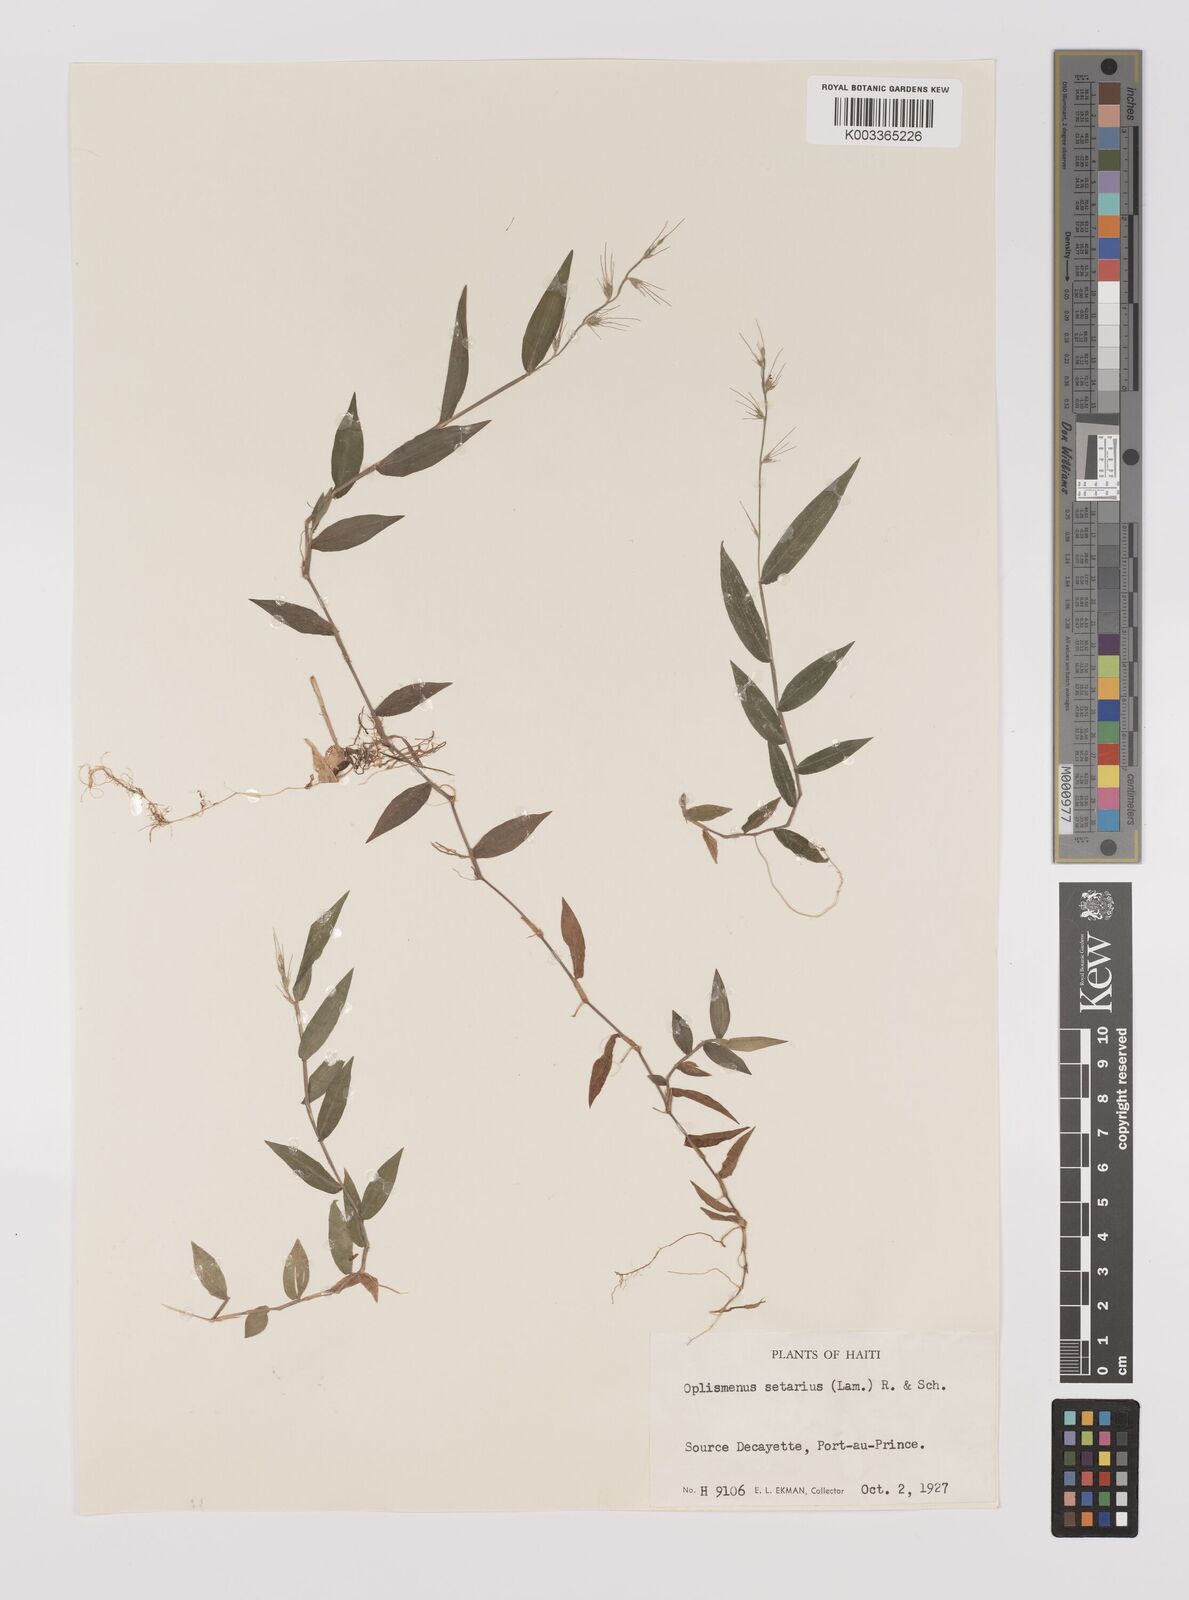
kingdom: Plantae
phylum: Tracheophyta
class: Liliopsida
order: Poales
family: Poaceae
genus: Oplismenus
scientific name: Oplismenus hirtellus
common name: Basketgrass
